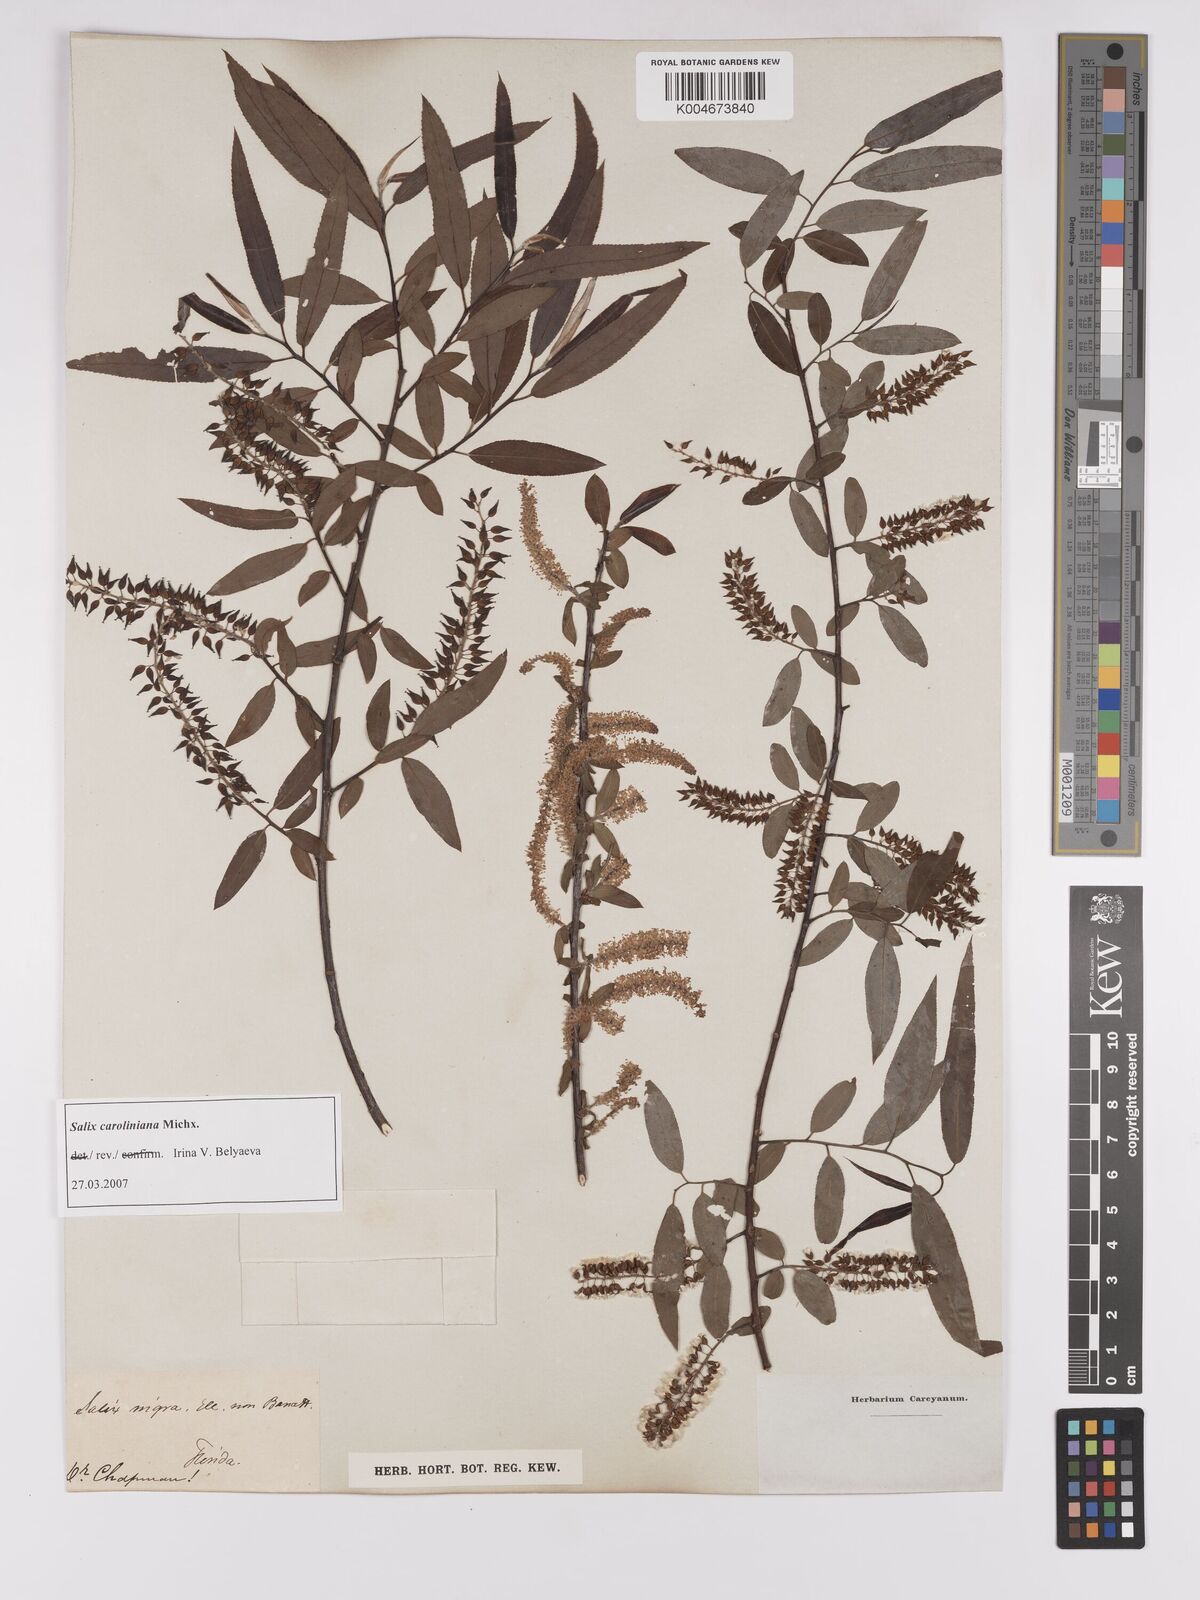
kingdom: Plantae
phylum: Tracheophyta
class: Magnoliopsida
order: Malpighiales
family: Salicaceae
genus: Salix
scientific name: Salix caroliniana
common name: Carolina willow
